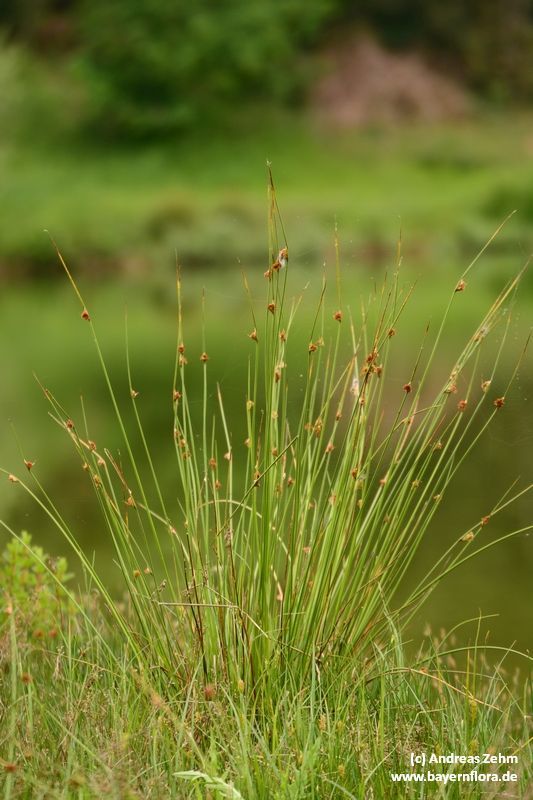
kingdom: Plantae
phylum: Tracheophyta
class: Liliopsida
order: Poales
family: Juncaceae
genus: Juncus
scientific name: Juncus conglomeratus
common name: Compact rush
